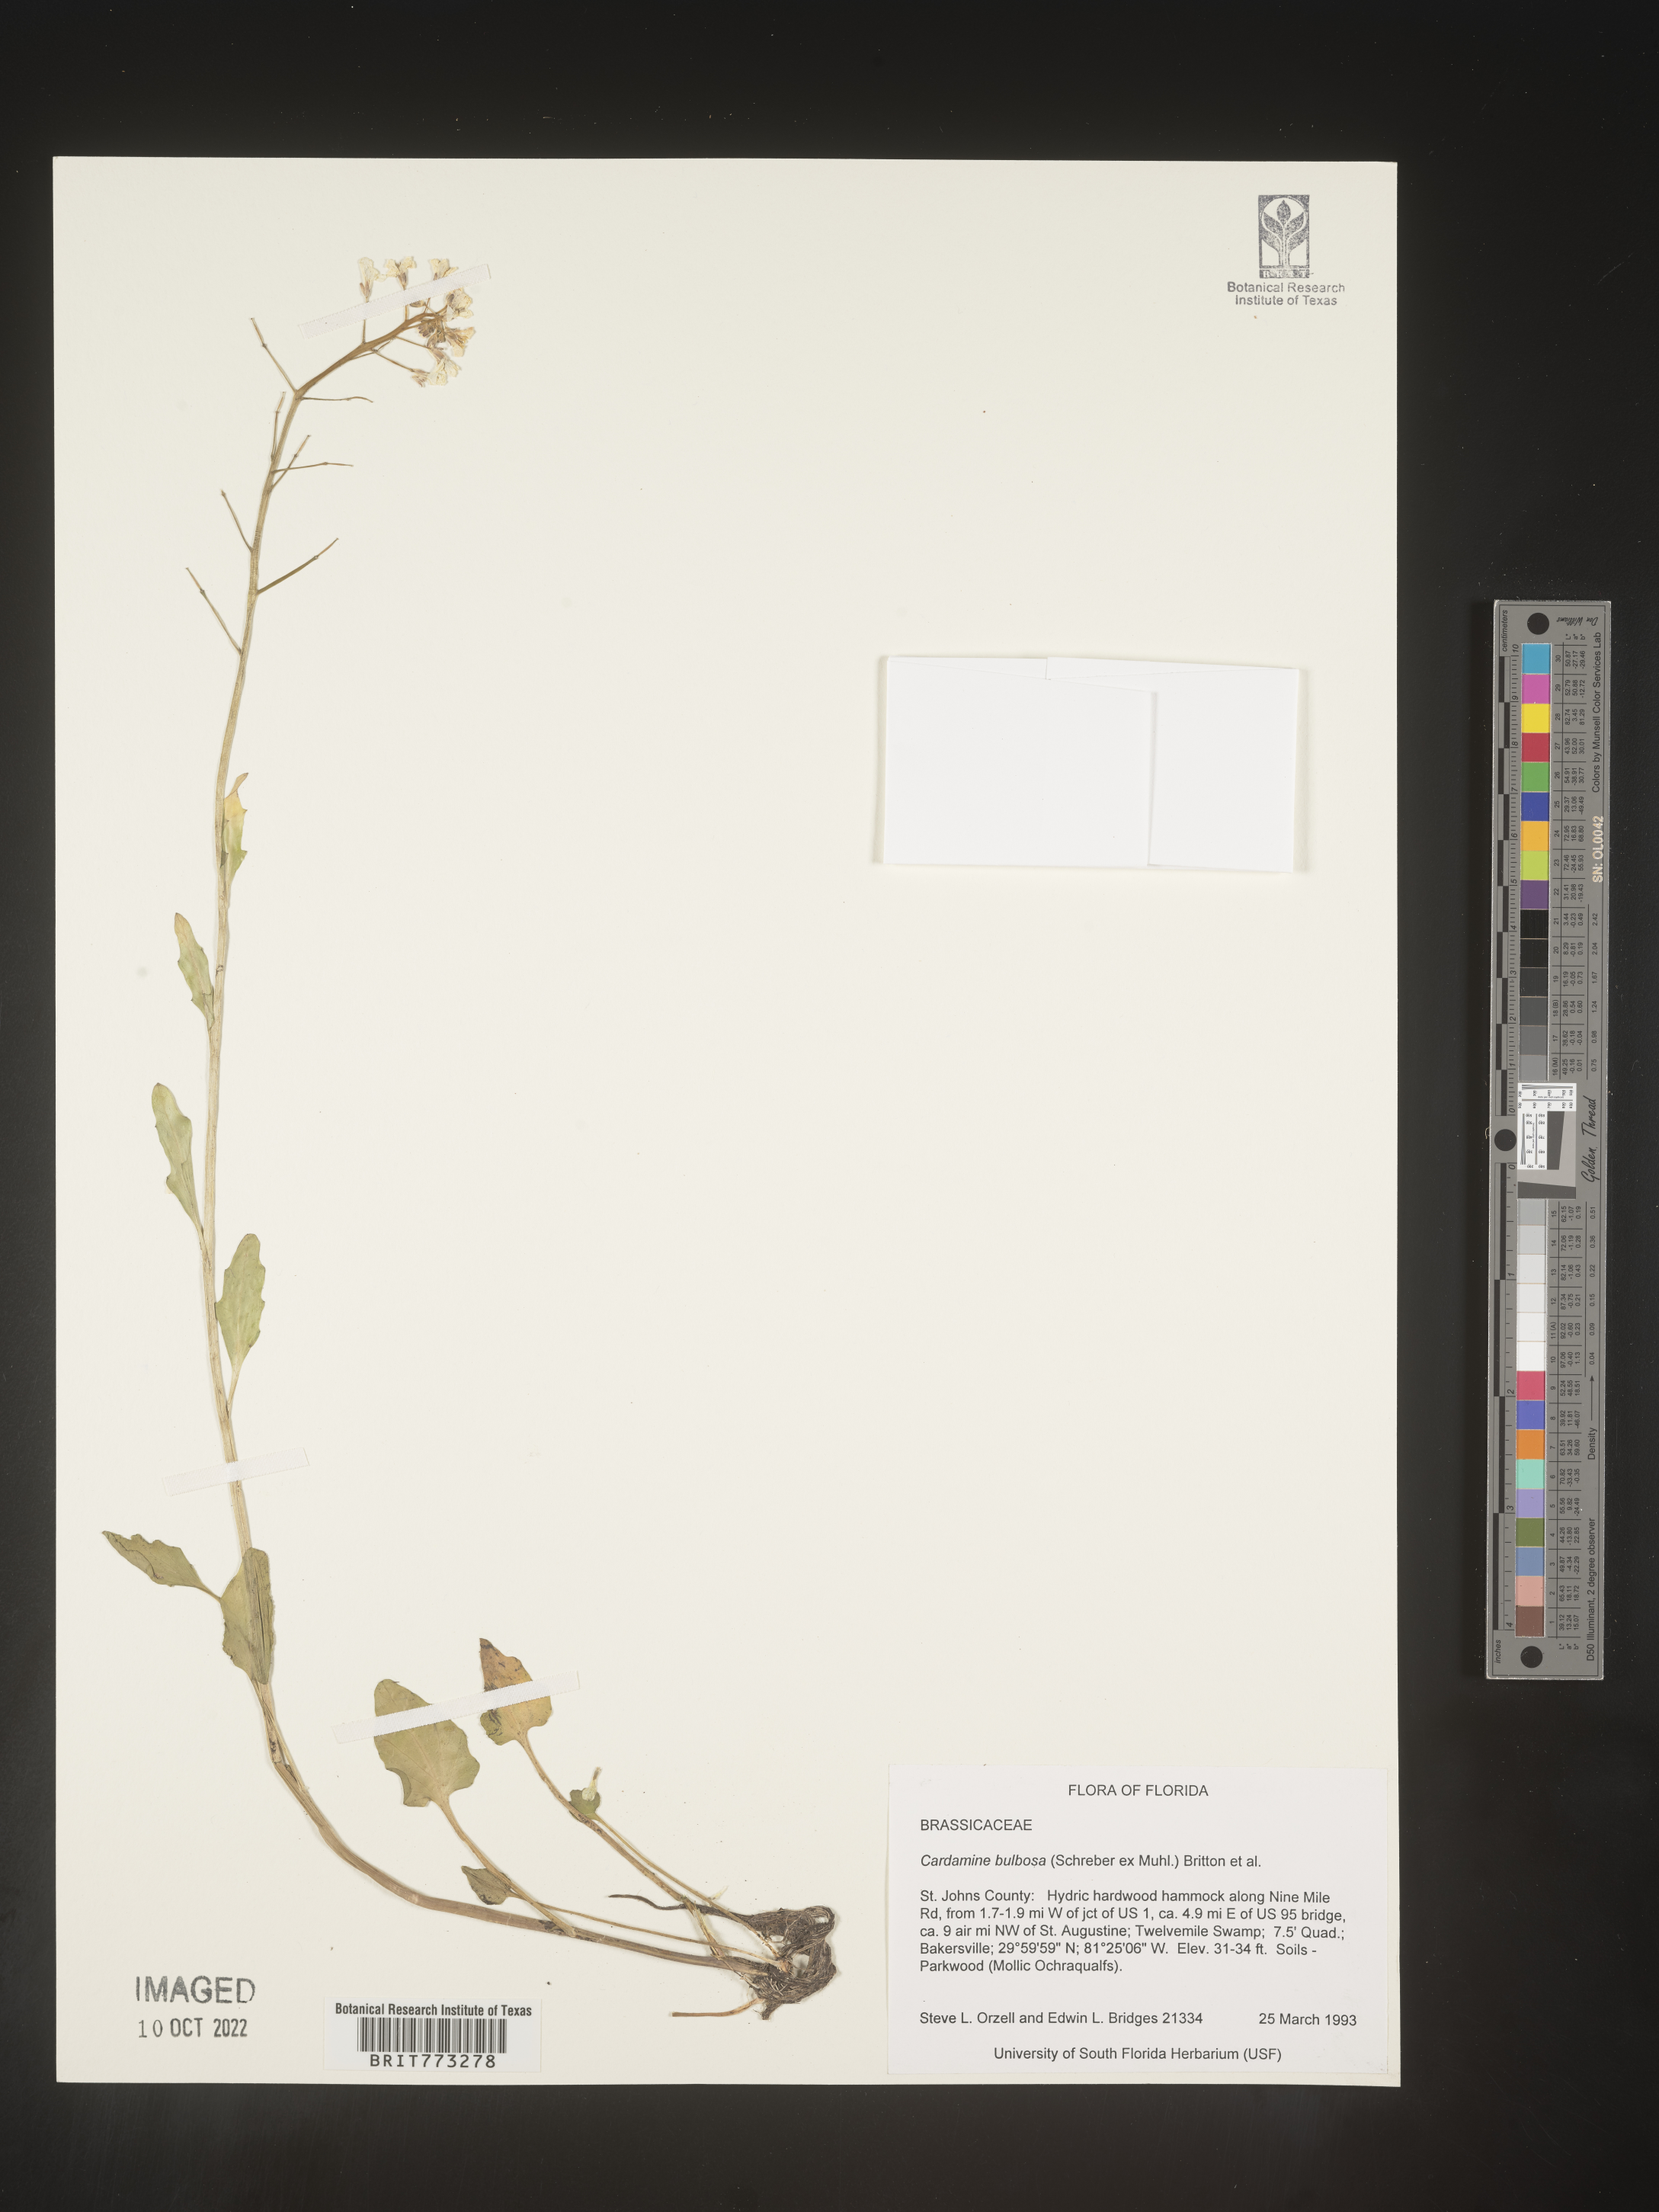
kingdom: Plantae
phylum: Tracheophyta
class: Magnoliopsida
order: Brassicales
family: Brassicaceae
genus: Cardamine
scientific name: Cardamine bulbosa
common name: Spring cress
